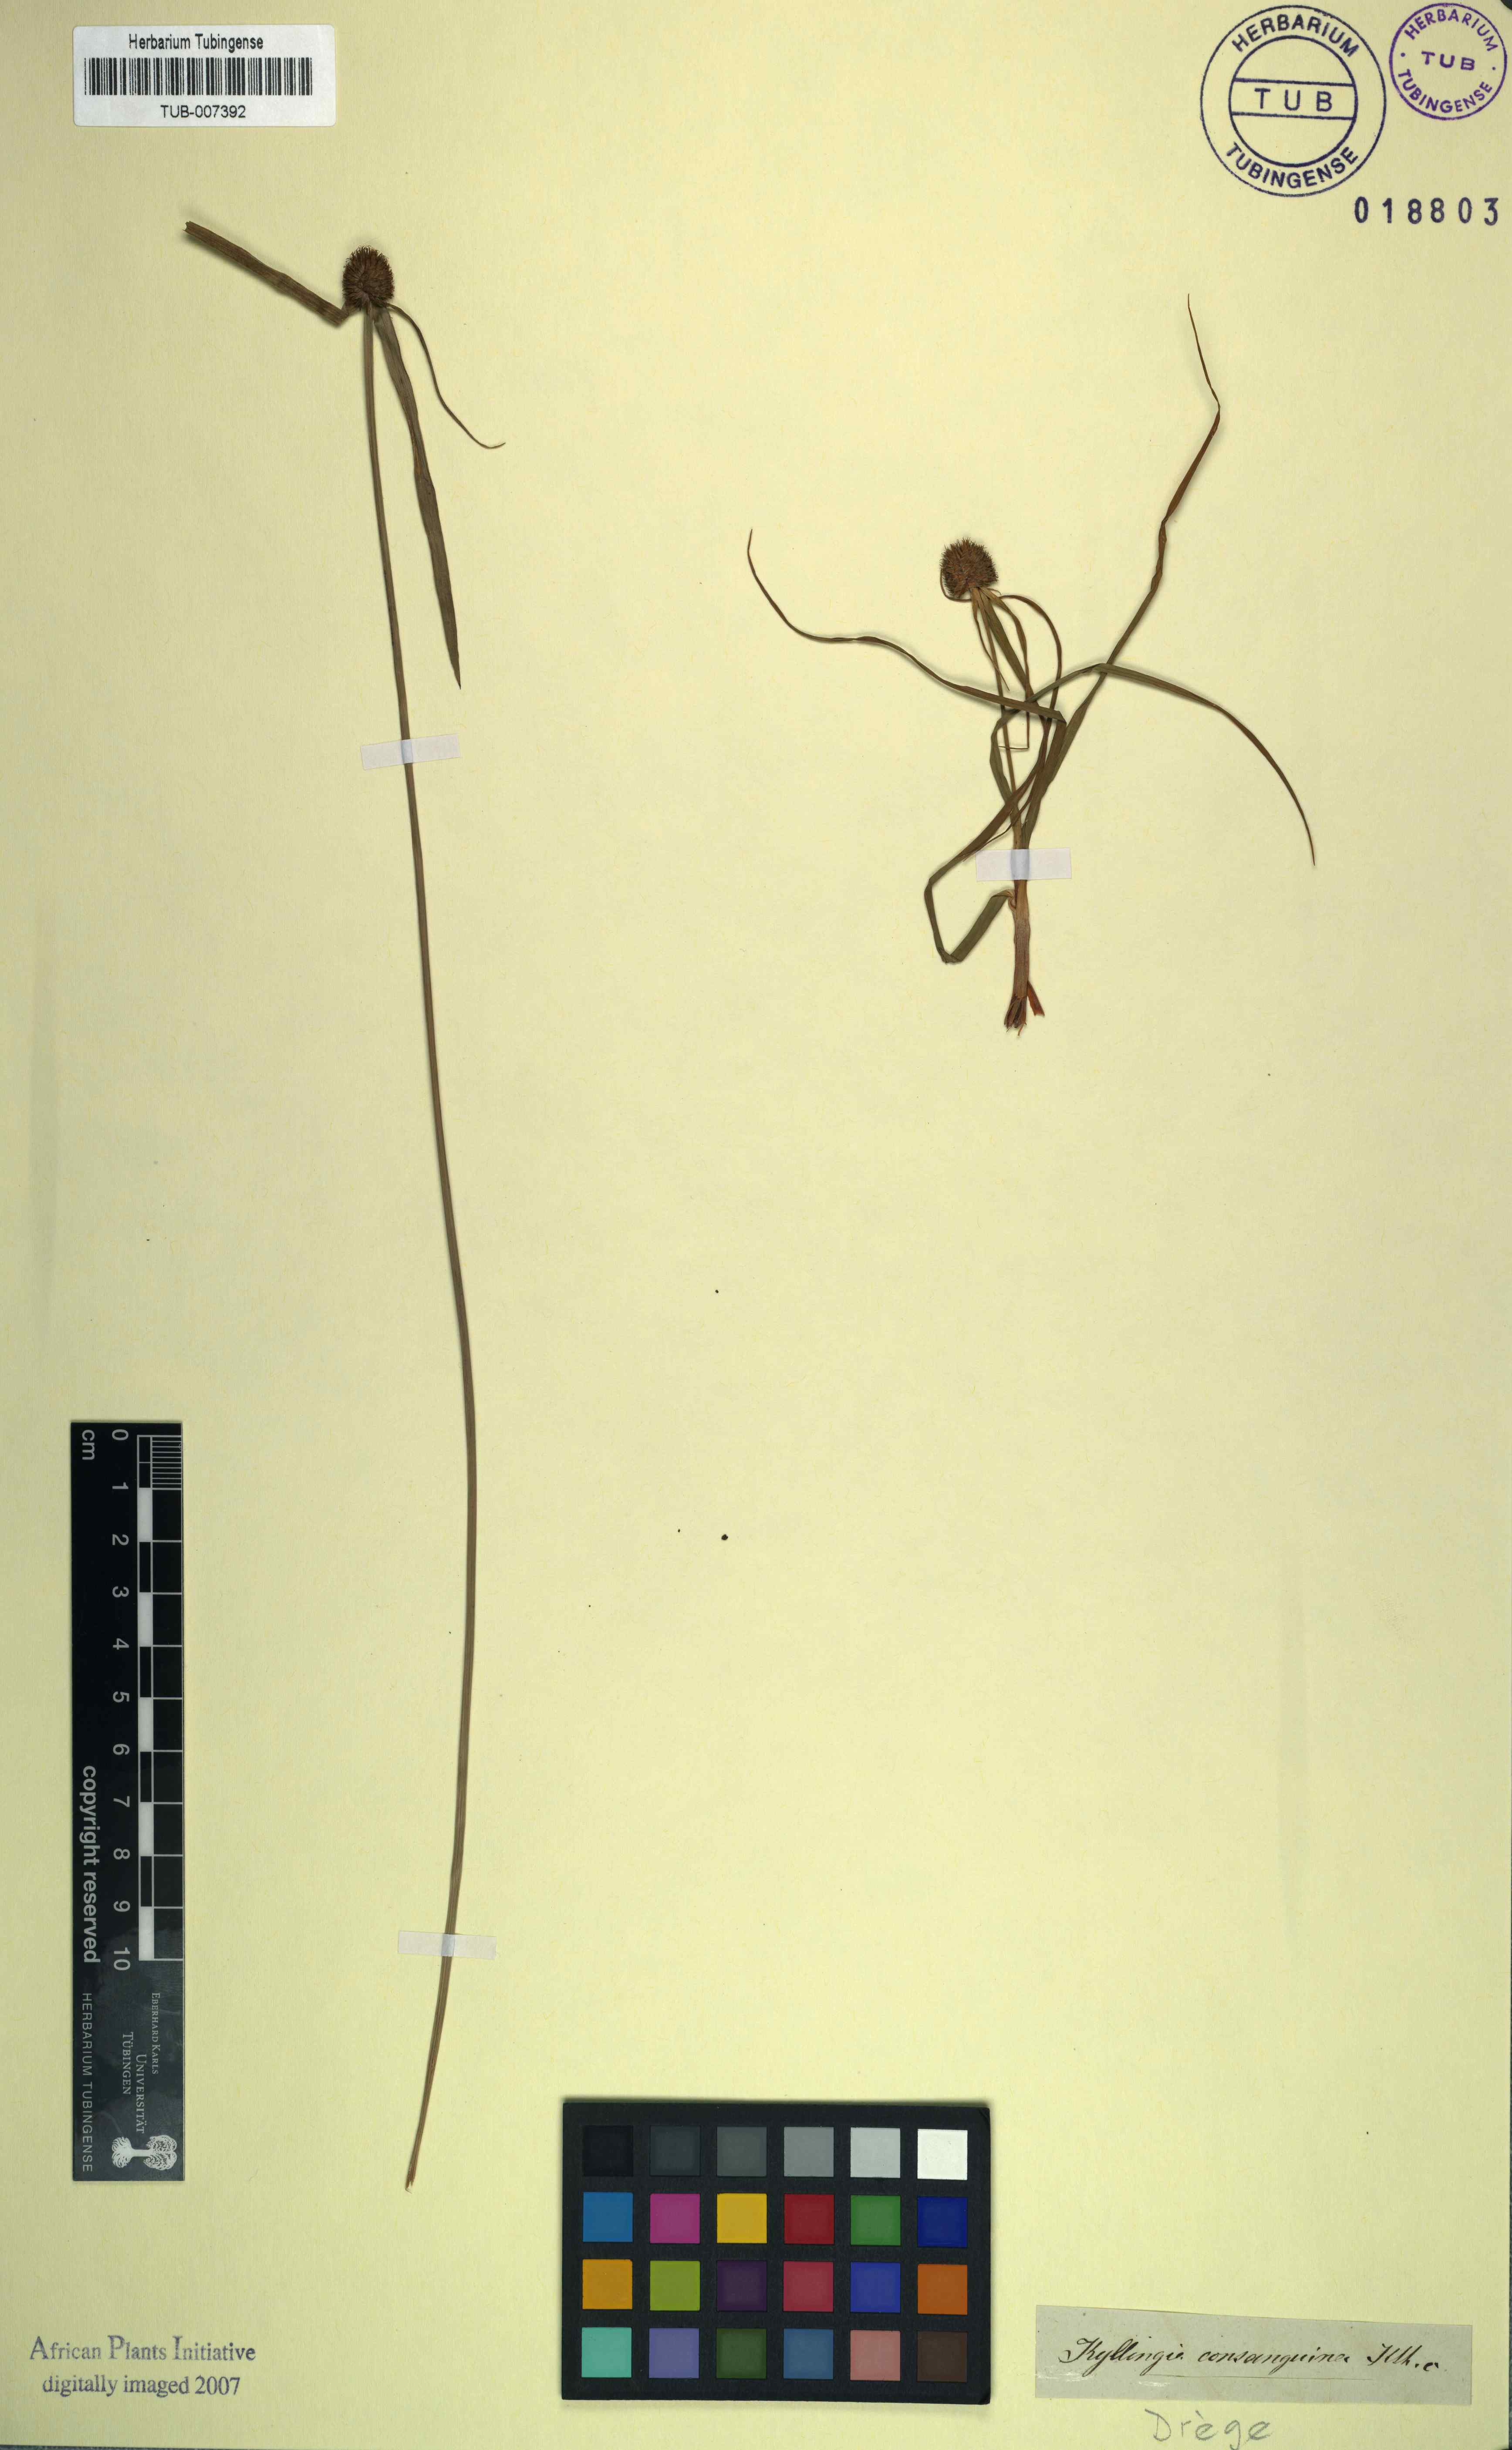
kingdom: Plantae
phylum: Tracheophyta
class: Liliopsida
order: Poales
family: Cyperaceae
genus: Cyperus
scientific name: Cyperus auratus
